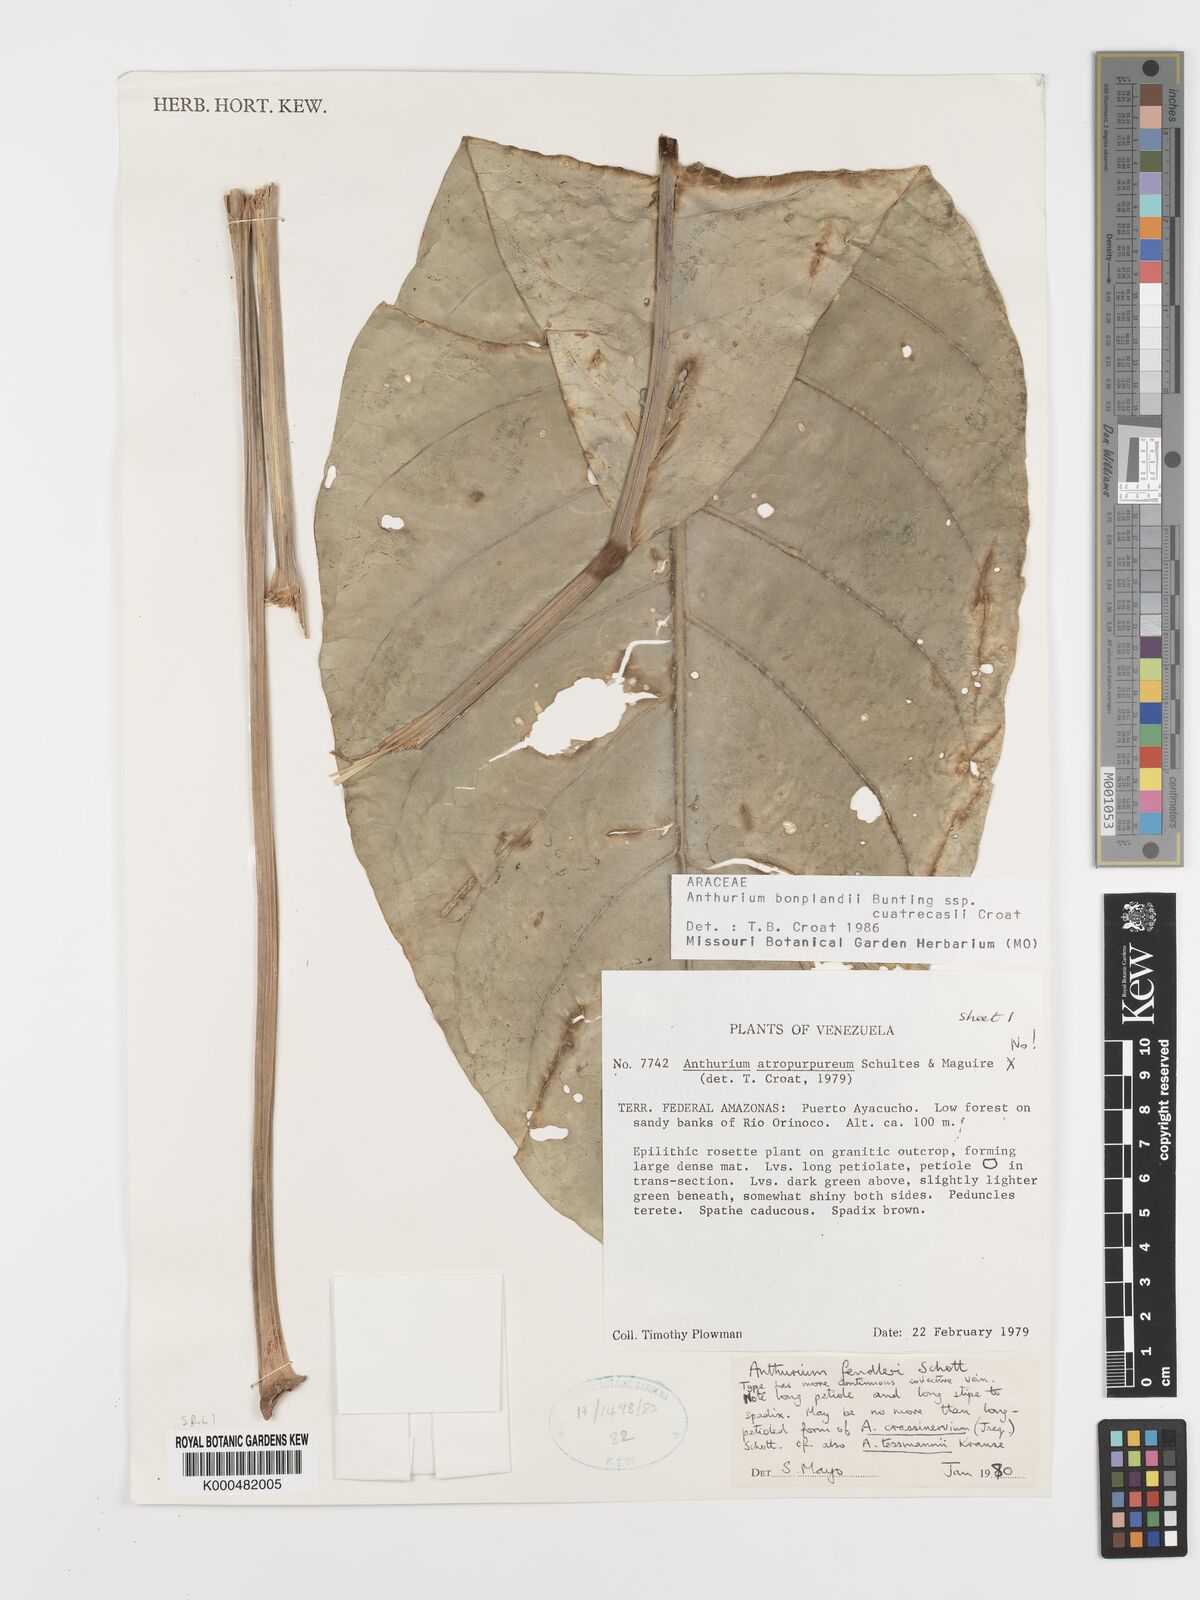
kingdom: Plantae
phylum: Tracheophyta
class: Liliopsida
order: Alismatales
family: Araceae
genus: Anthurium
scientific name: Anthurium
